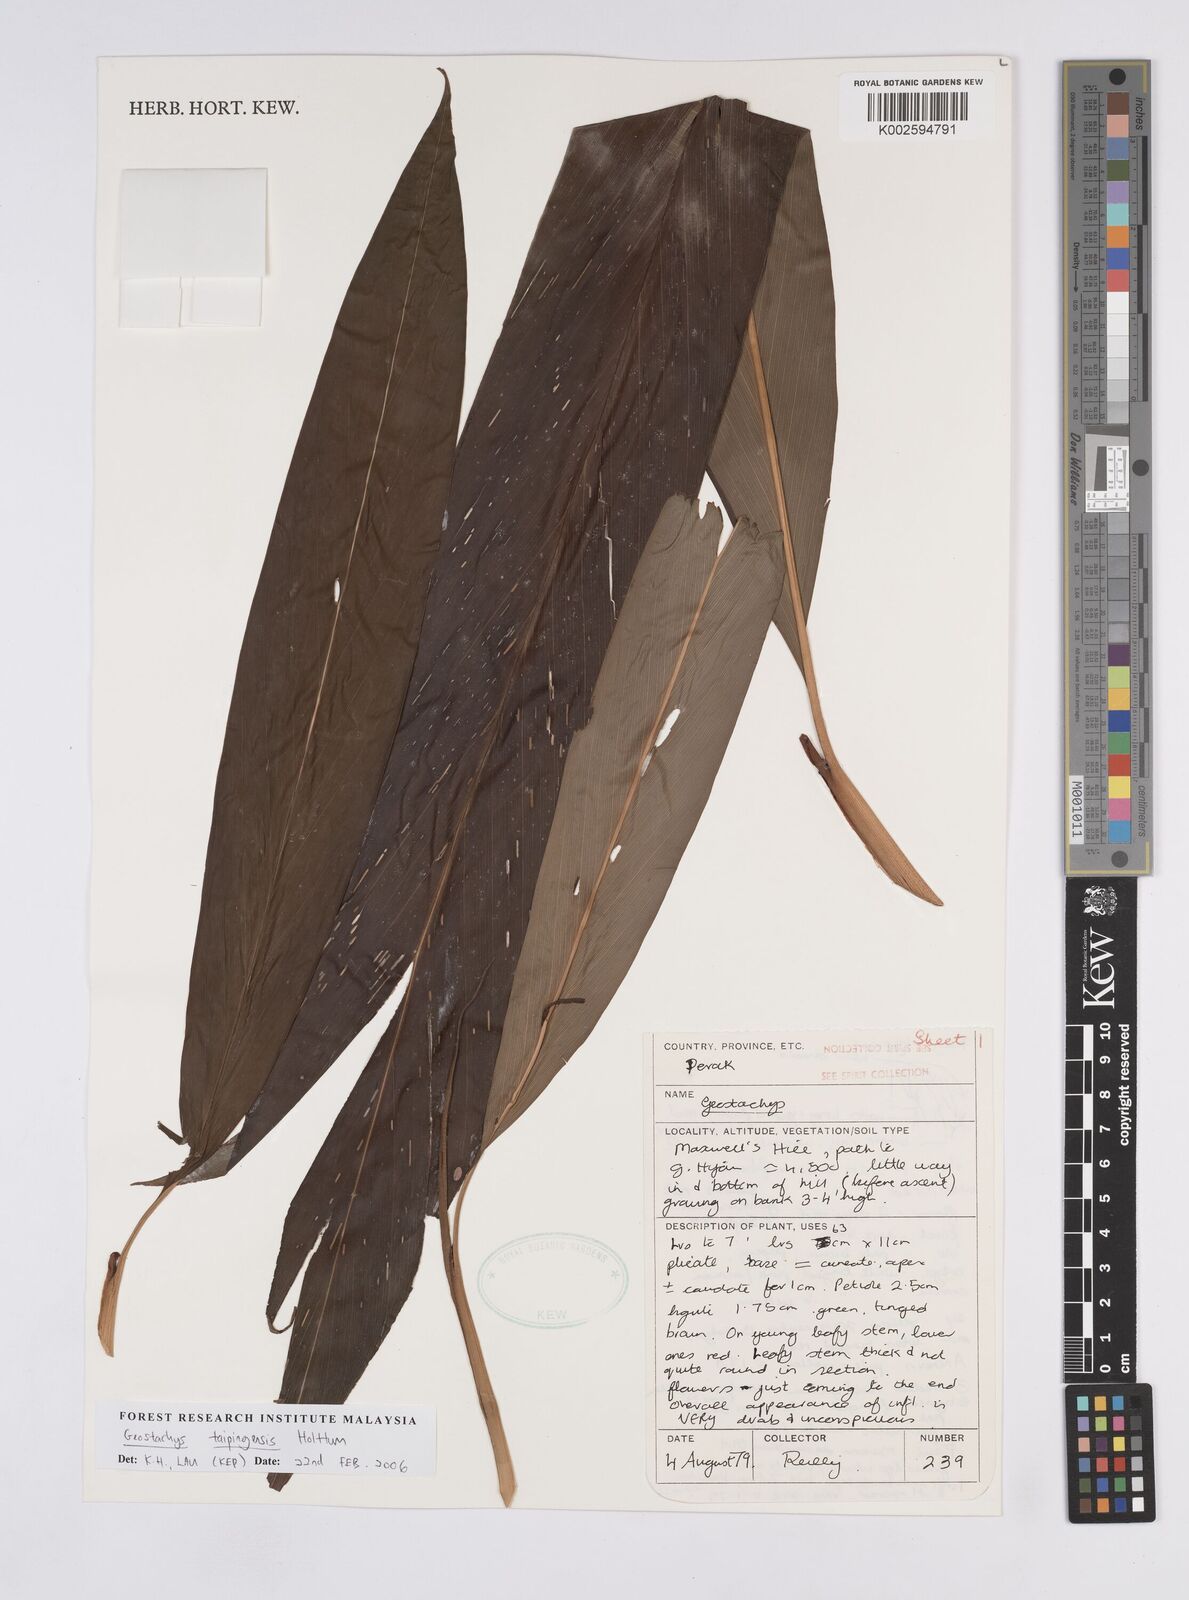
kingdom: Plantae
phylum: Tracheophyta
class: Liliopsida
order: Zingiberales
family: Zingiberaceae
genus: Geostachys
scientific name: Geostachys taipingensis
